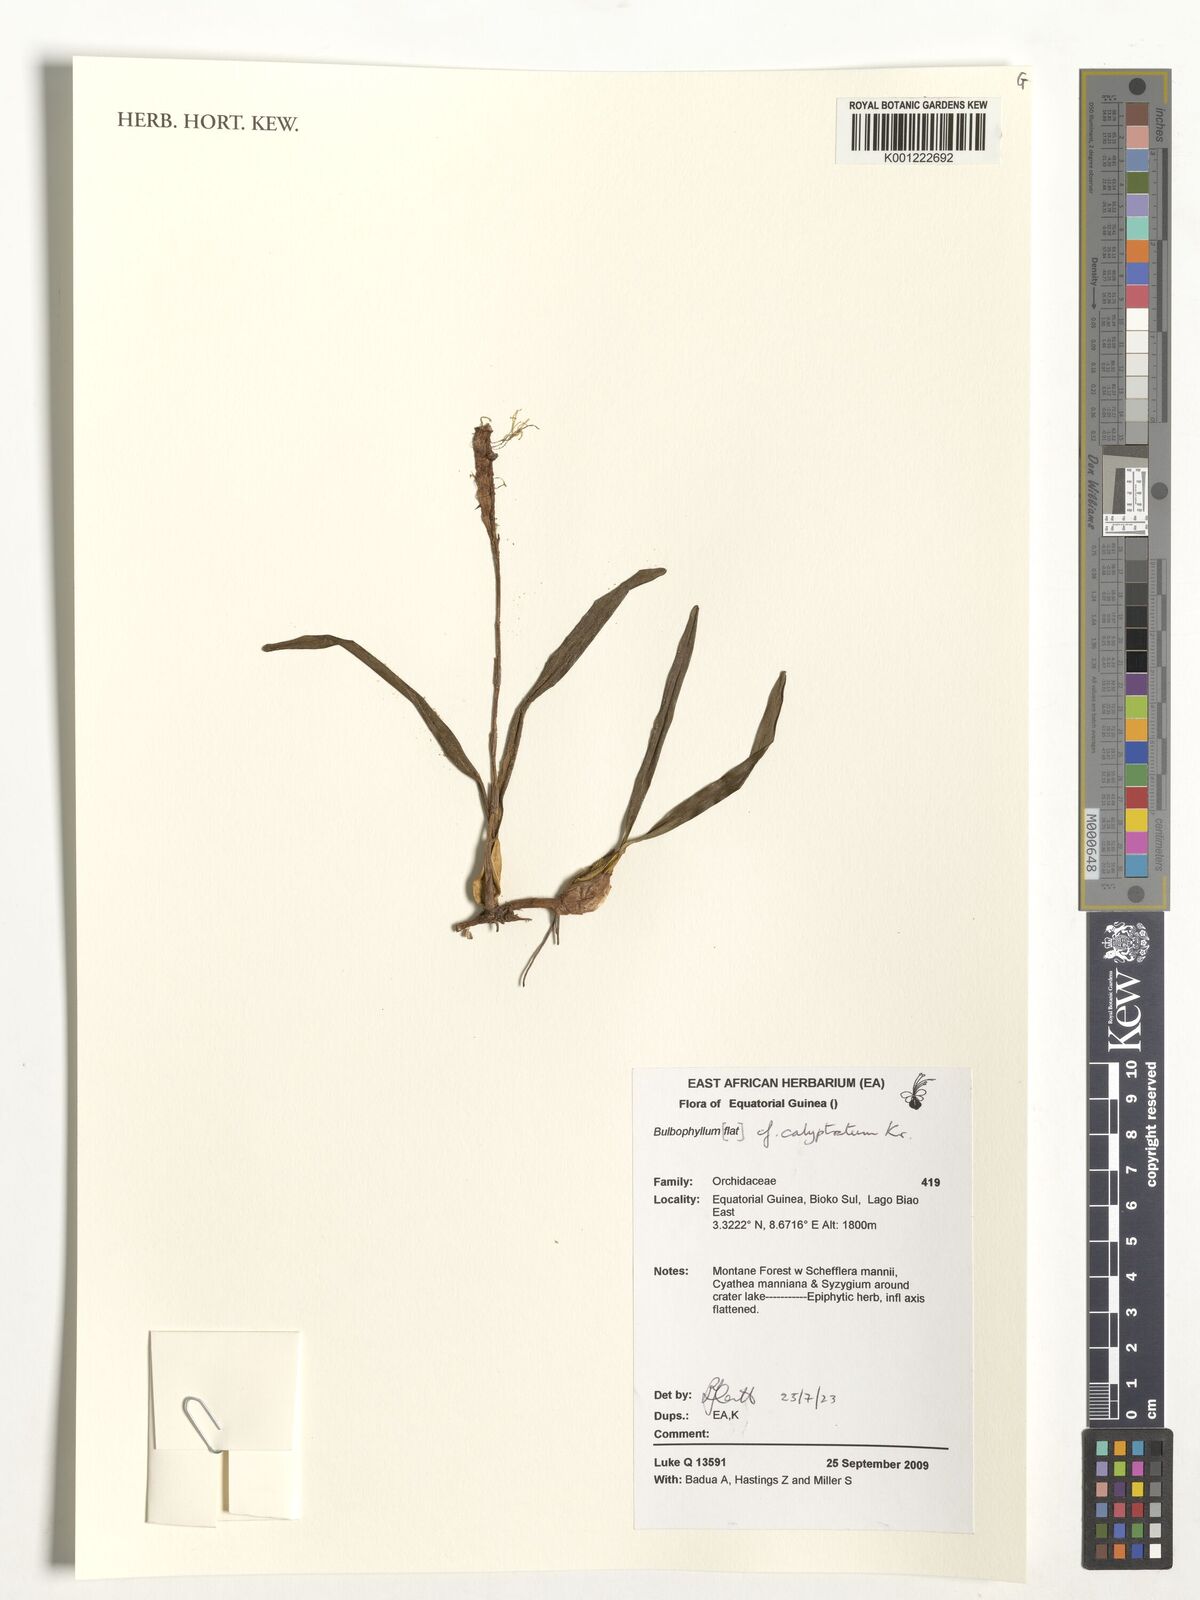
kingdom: Plantae
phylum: Tracheophyta
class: Liliopsida
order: Asparagales
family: Orchidaceae
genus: Bulbophyllum
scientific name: Bulbophyllum calyptratum
